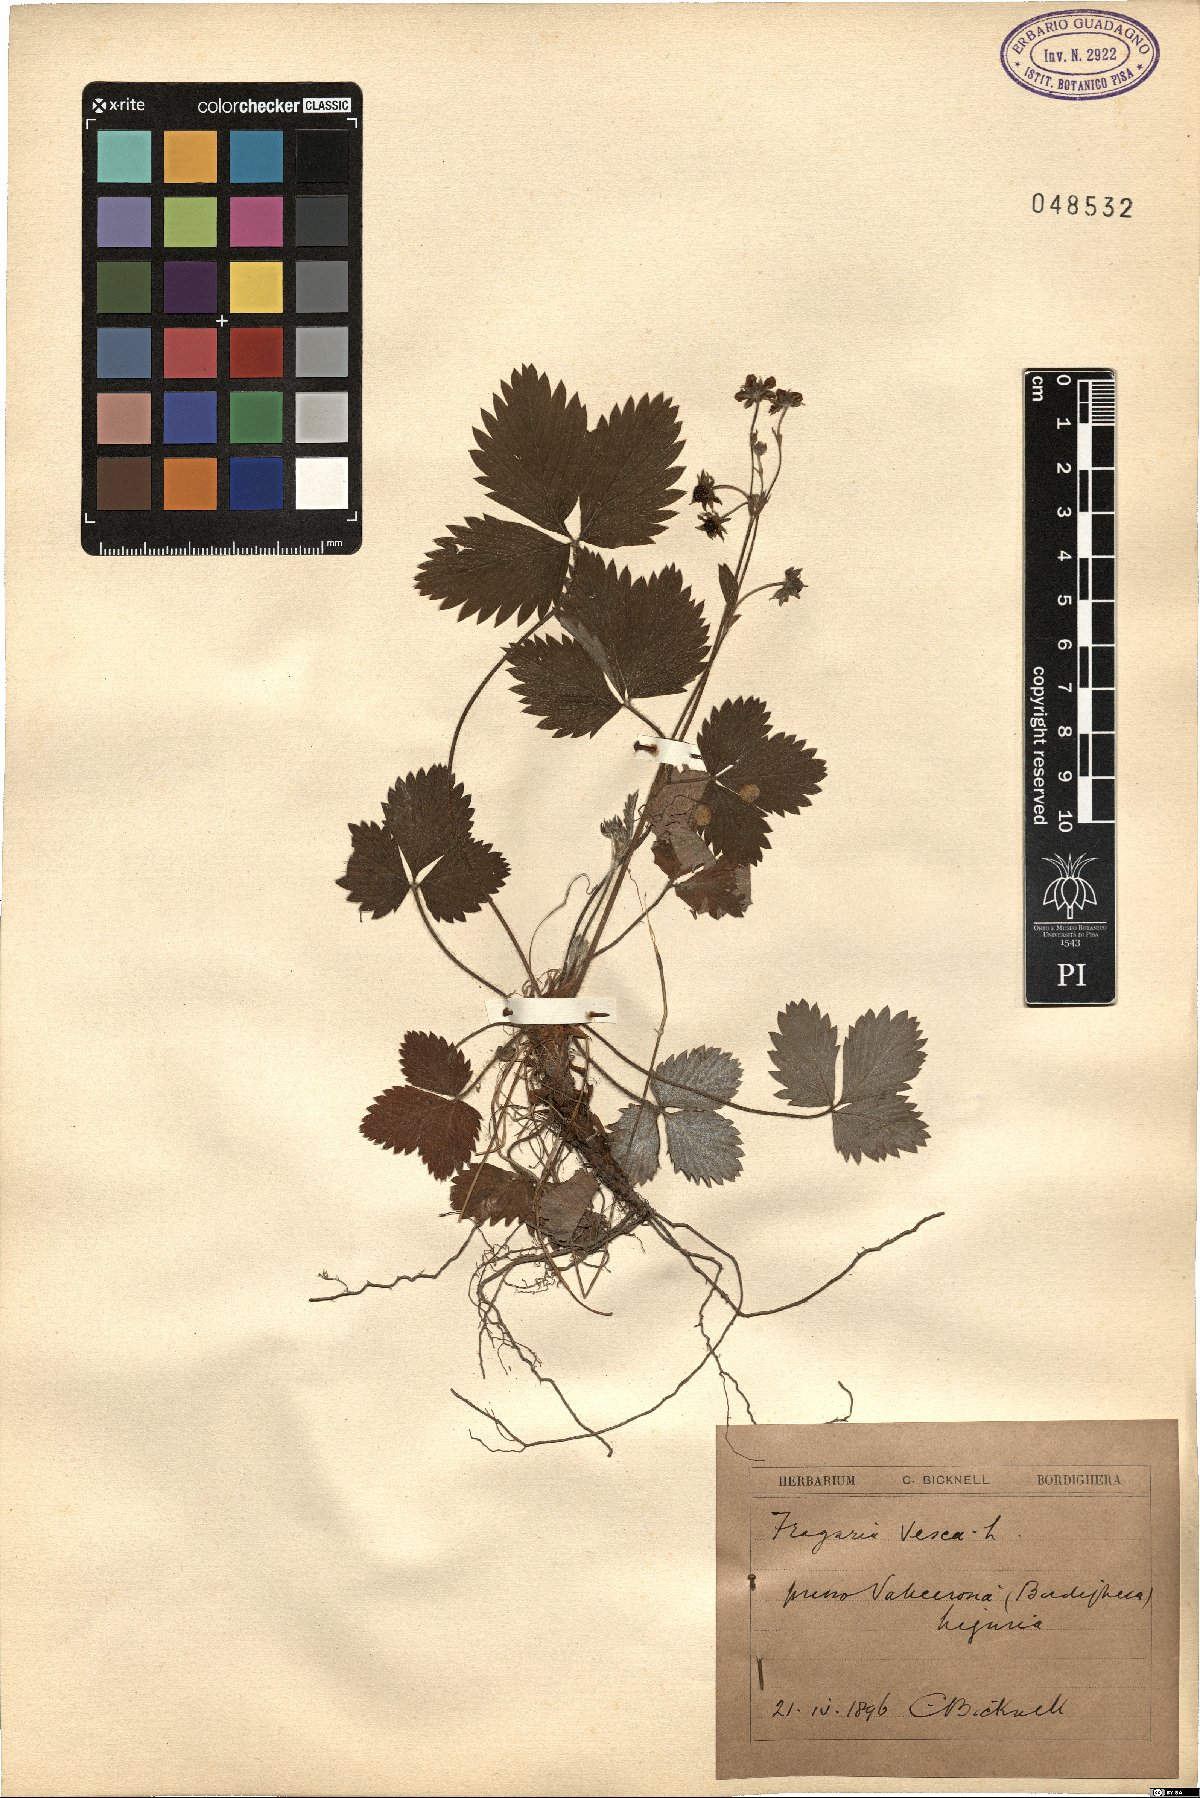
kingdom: Plantae
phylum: Tracheophyta
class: Magnoliopsida
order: Rosales
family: Rosaceae
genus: Fragaria
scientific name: Fragaria vesca
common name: Wild strawberry
